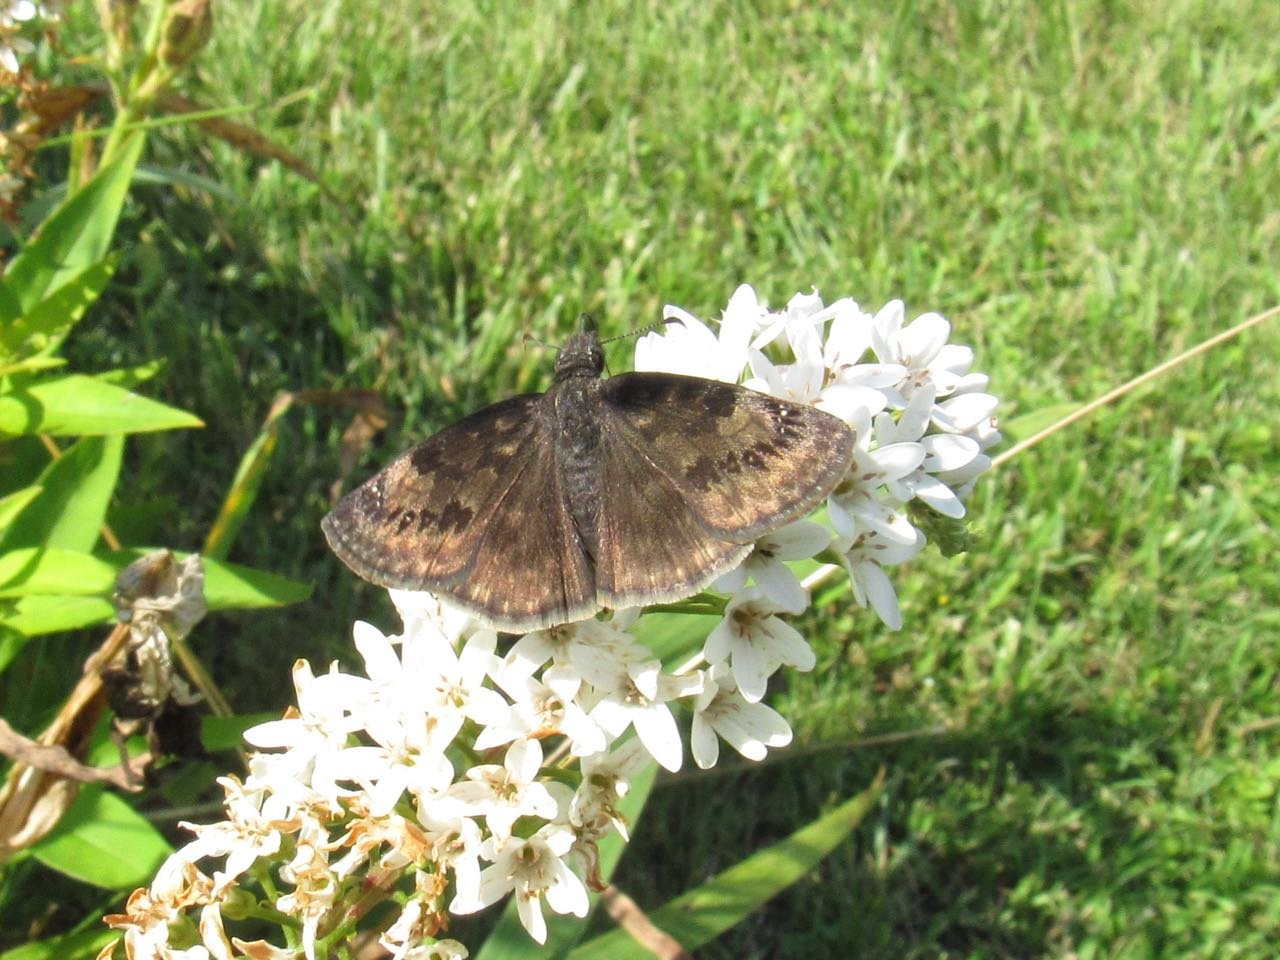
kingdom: Animalia
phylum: Arthropoda
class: Insecta
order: Lepidoptera
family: Hesperiidae
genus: Gesta
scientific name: Gesta
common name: Wild Indigo Duskywing
